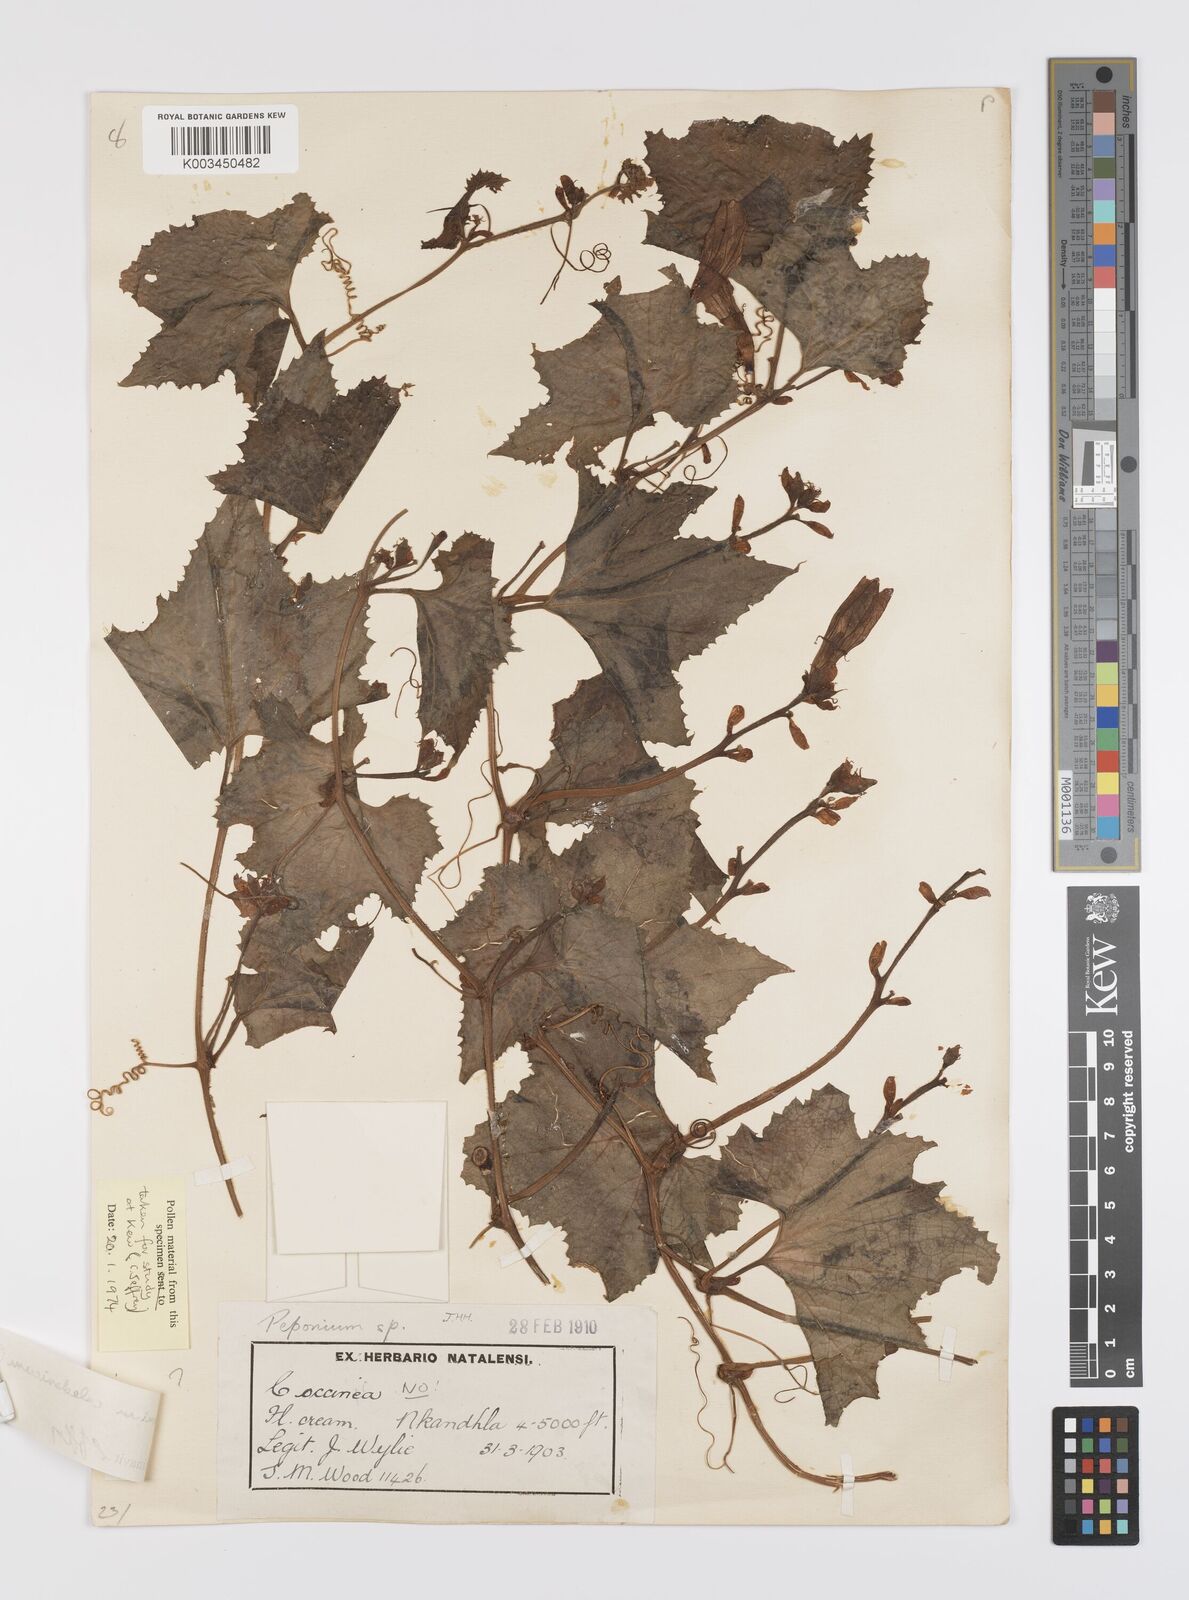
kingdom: Plantae
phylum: Tracheophyta
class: Magnoliopsida
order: Cucurbitales
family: Cucurbitaceae
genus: Peponium
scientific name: Peponium caledonicum
